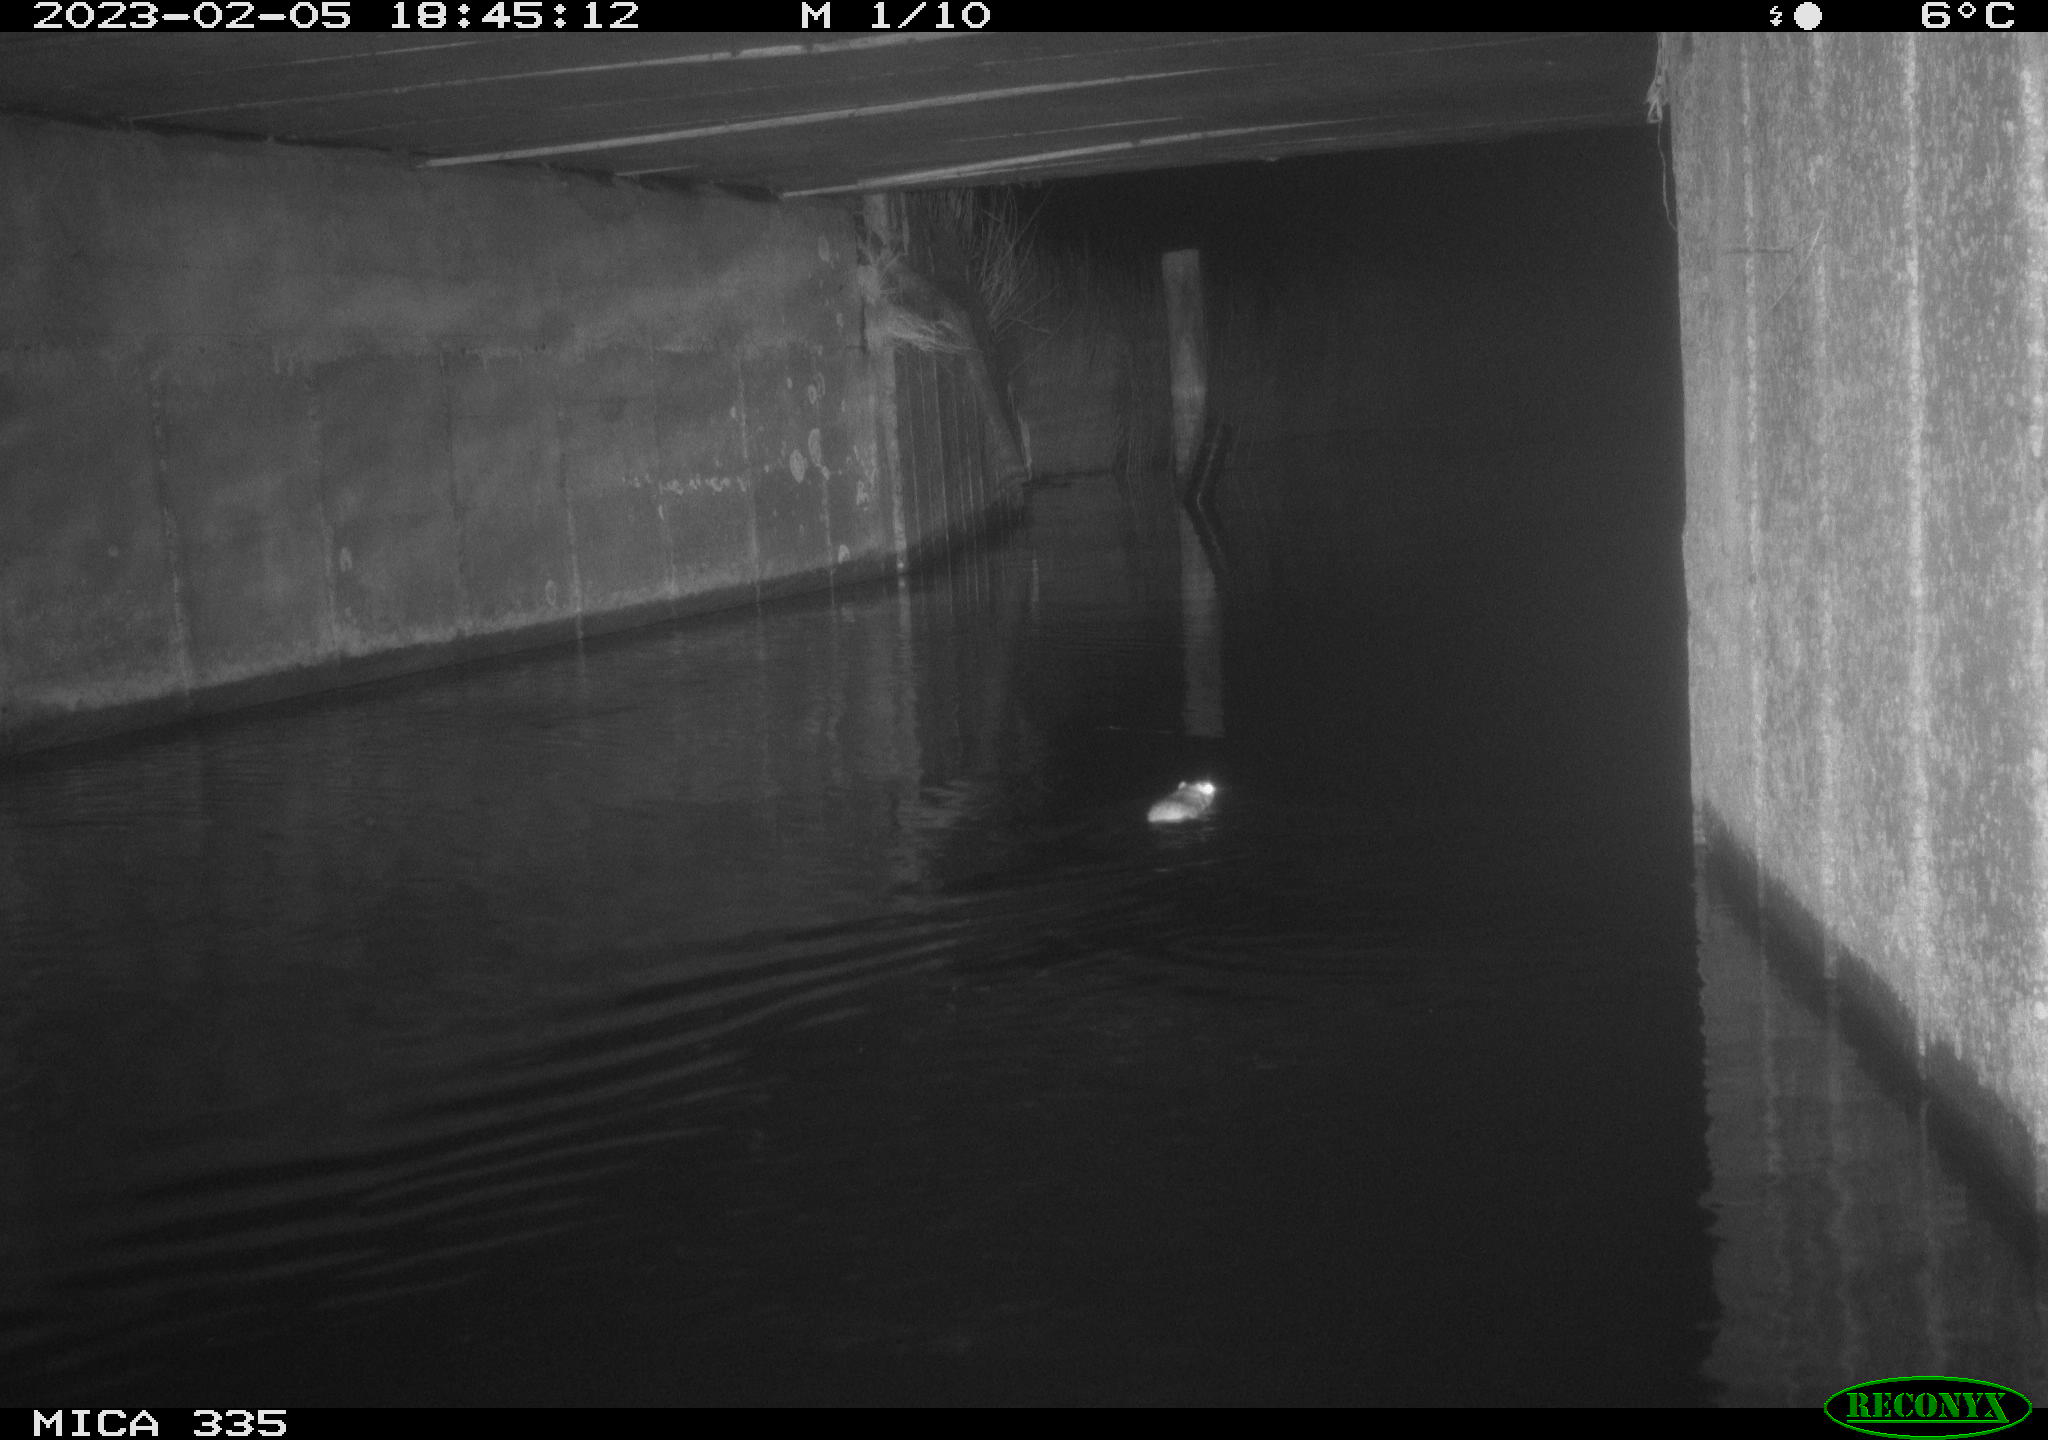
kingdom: Animalia
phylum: Chordata
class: Mammalia
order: Rodentia
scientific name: Rodentia
